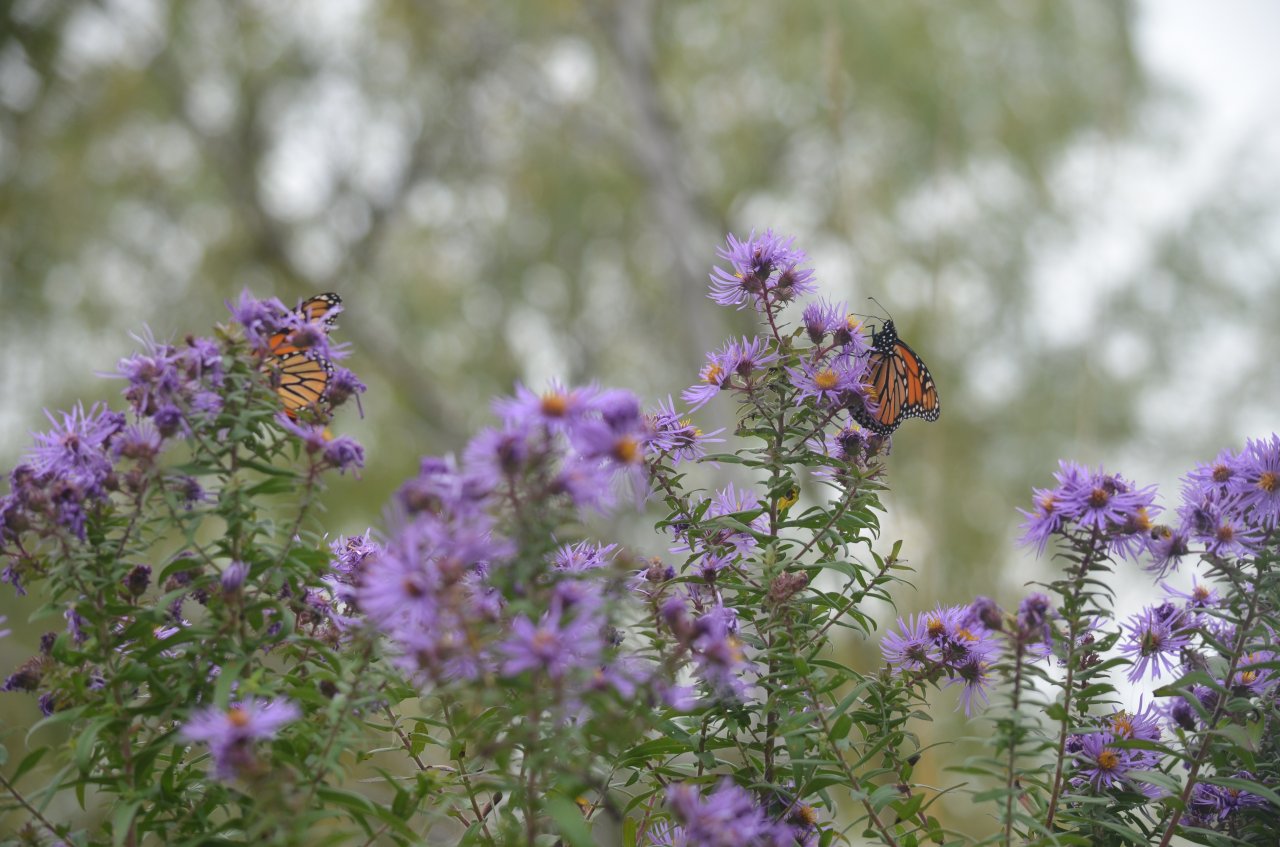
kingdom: Animalia
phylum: Arthropoda
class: Insecta
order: Lepidoptera
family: Nymphalidae
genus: Danaus
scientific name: Danaus plexippus
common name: Monarch
